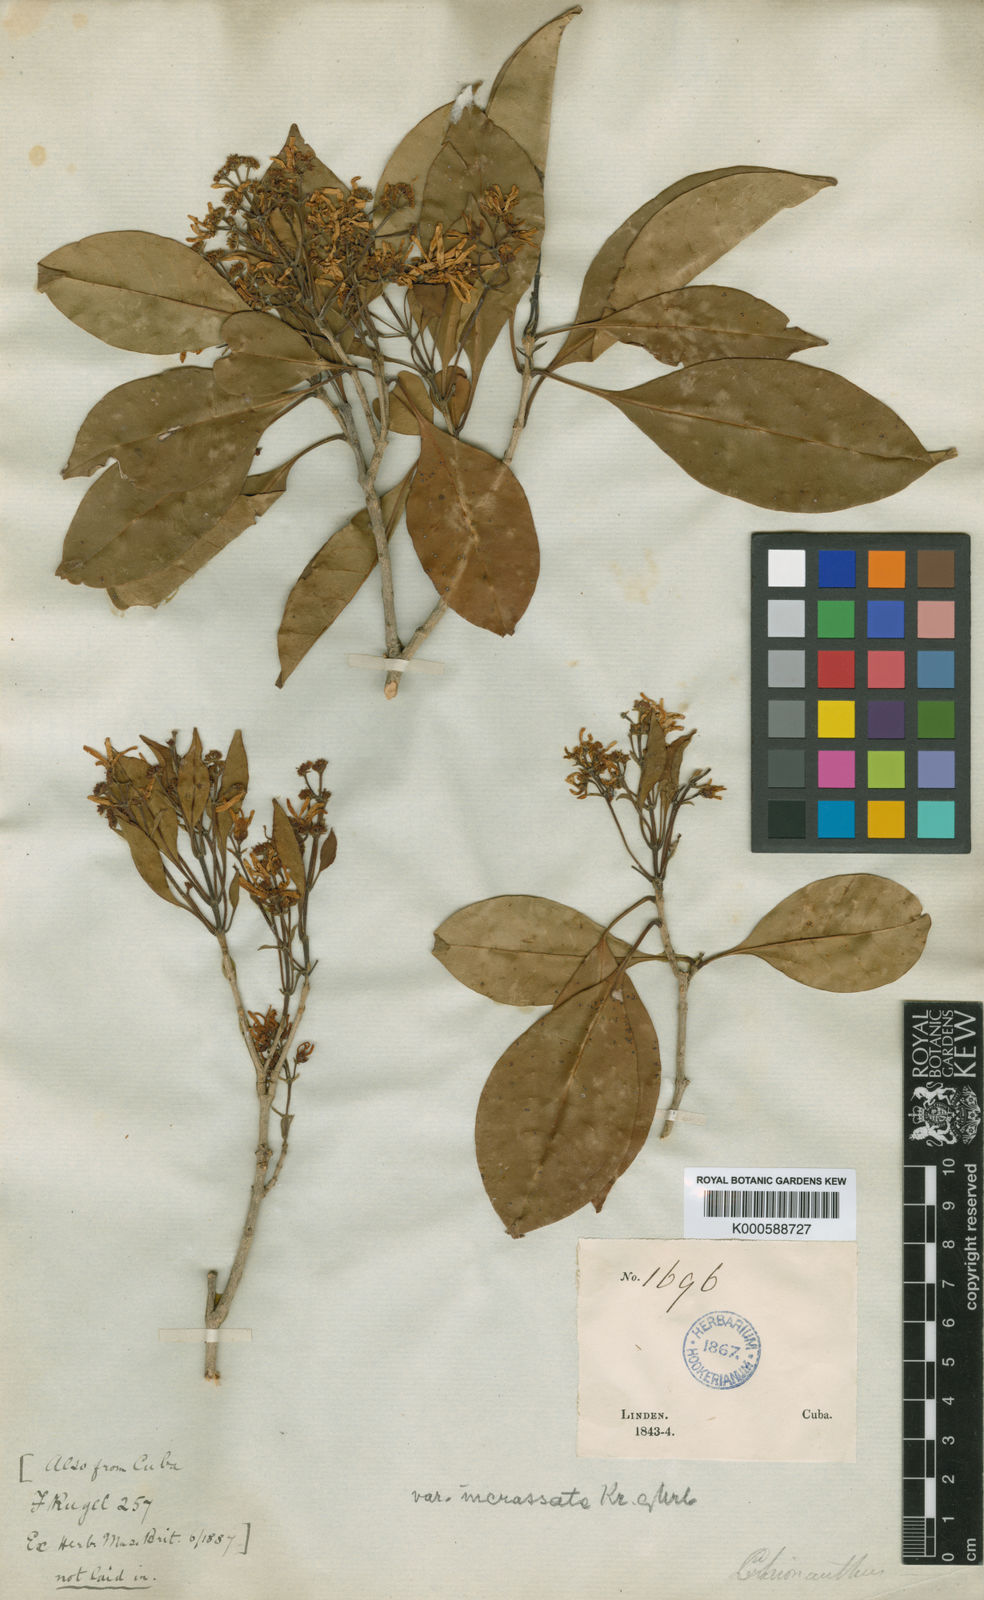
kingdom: Plantae
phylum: Tracheophyta
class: Magnoliopsida
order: Lamiales
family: Oleaceae
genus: Chionanthus
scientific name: Chionanthus panamensis
